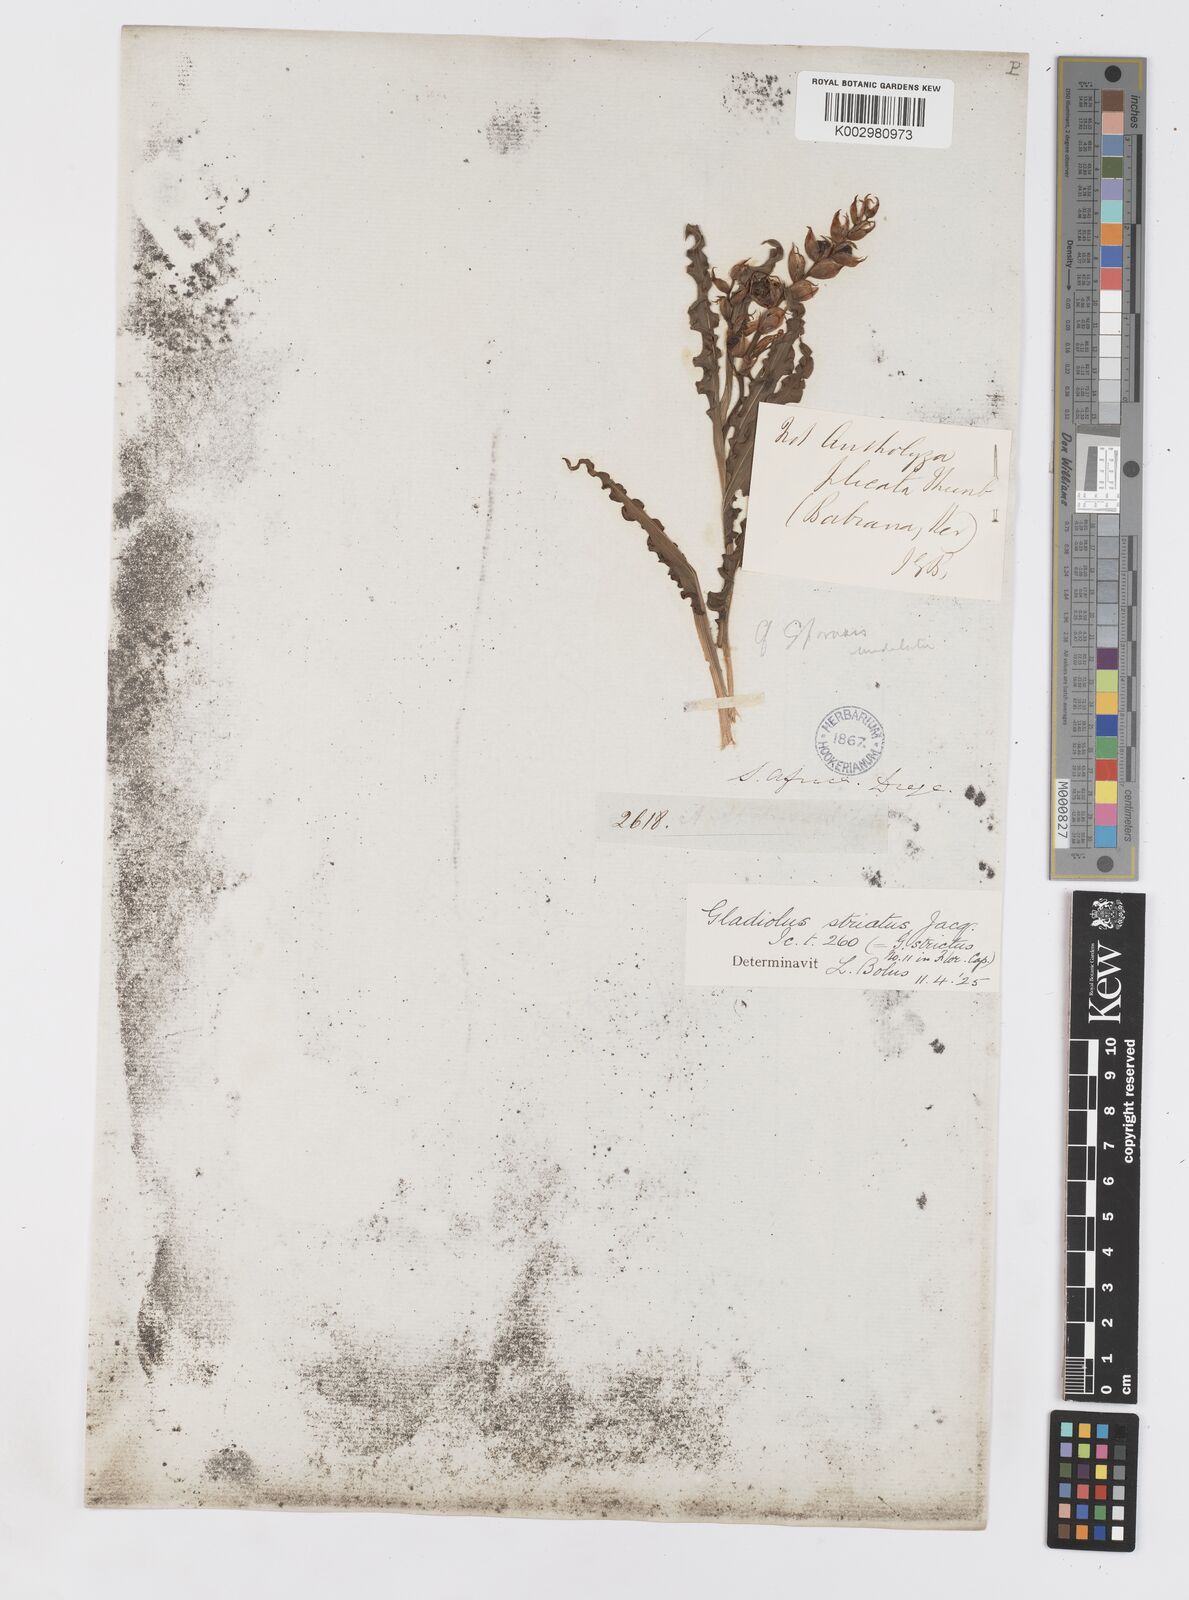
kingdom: Plantae
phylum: Tracheophyta
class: Liliopsida
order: Asparagales
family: Iridaceae
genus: Babiana
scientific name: Babiana striata
